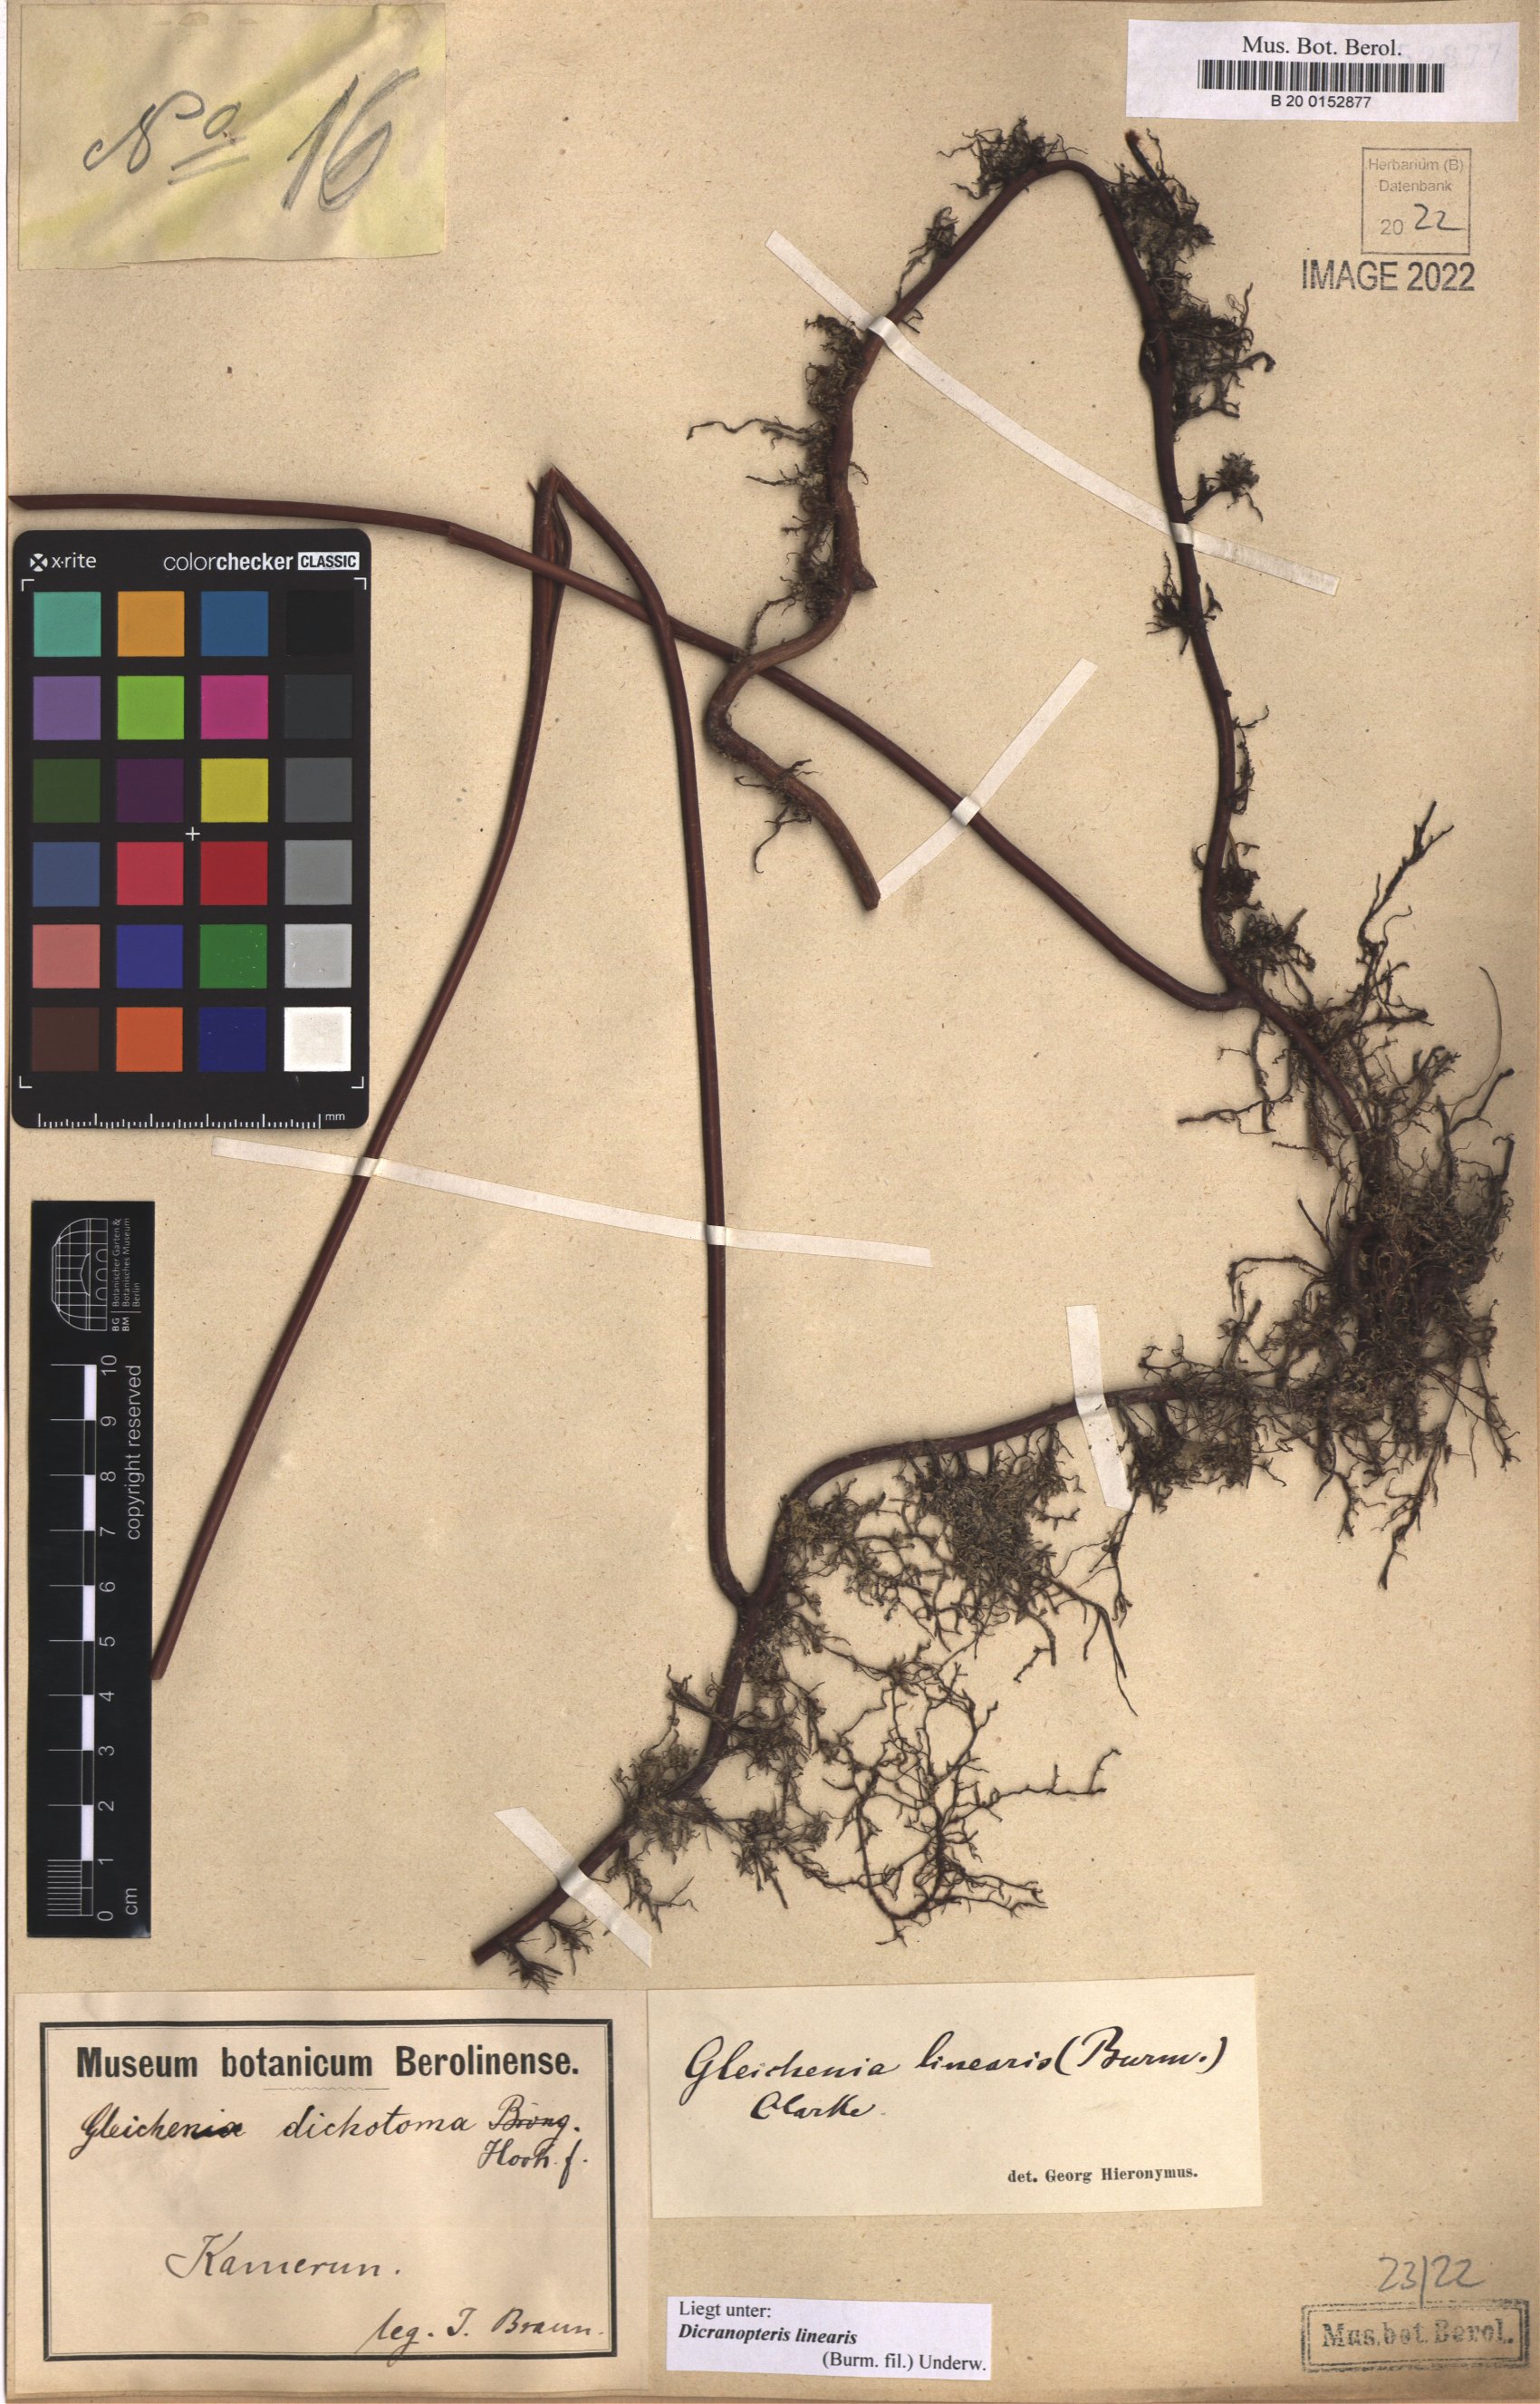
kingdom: Plantae
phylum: Tracheophyta
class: Polypodiopsida
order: Gleicheniales
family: Gleicheniaceae
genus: Dicranopteris
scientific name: Dicranopteris linearis
